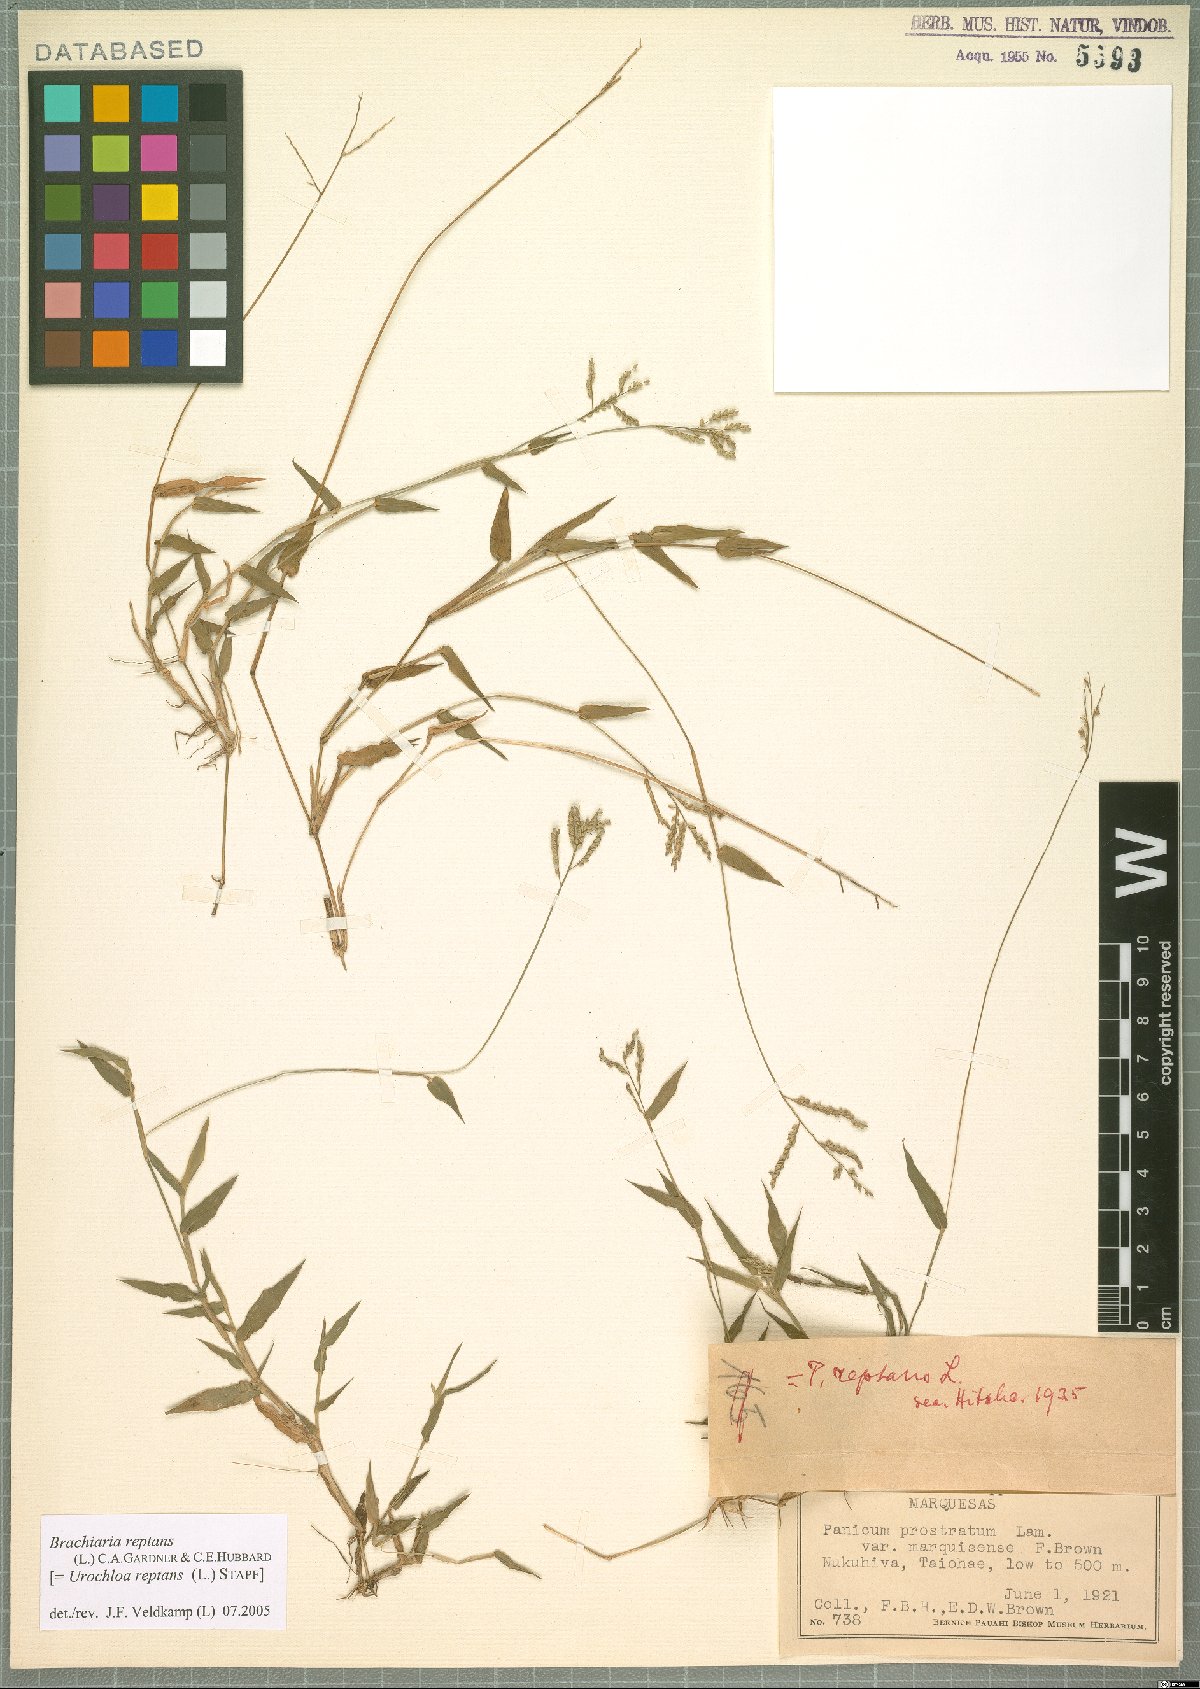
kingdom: Plantae
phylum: Tracheophyta
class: Liliopsida
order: Poales
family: Poaceae
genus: Urochloa
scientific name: Urochloa reptans
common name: Sprawling signalgrass
